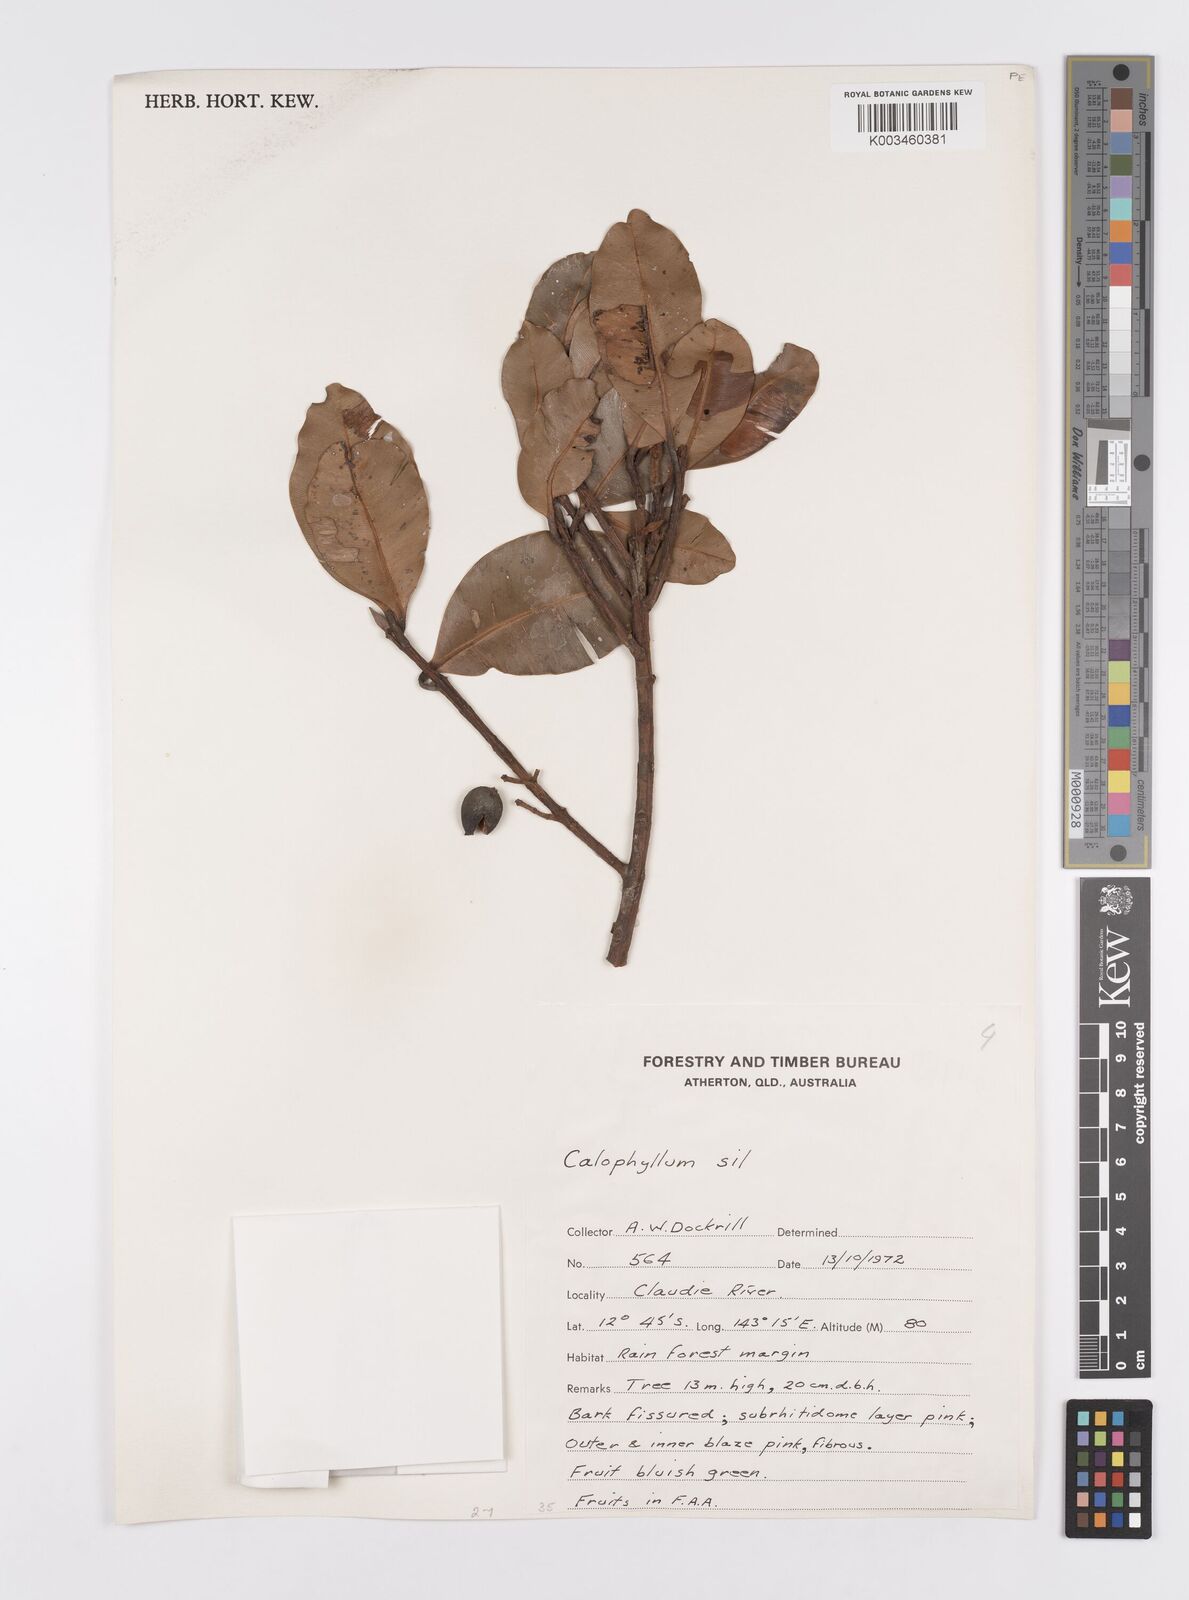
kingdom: Plantae
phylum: Tracheophyta
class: Magnoliopsida
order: Malpighiales
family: Calophyllaceae
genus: Calophyllum
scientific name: Calophyllum sil
